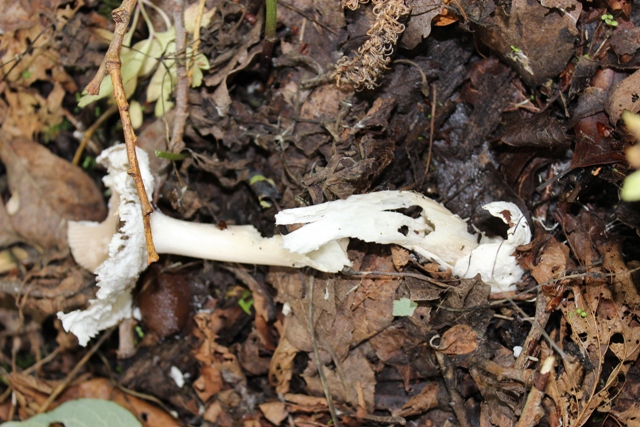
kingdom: Fungi
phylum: Basidiomycota
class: Agaricomycetes
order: Agaricales
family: Amanitaceae
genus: Amanita
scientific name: Amanita vaginata
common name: grå kam-fluesvamp
